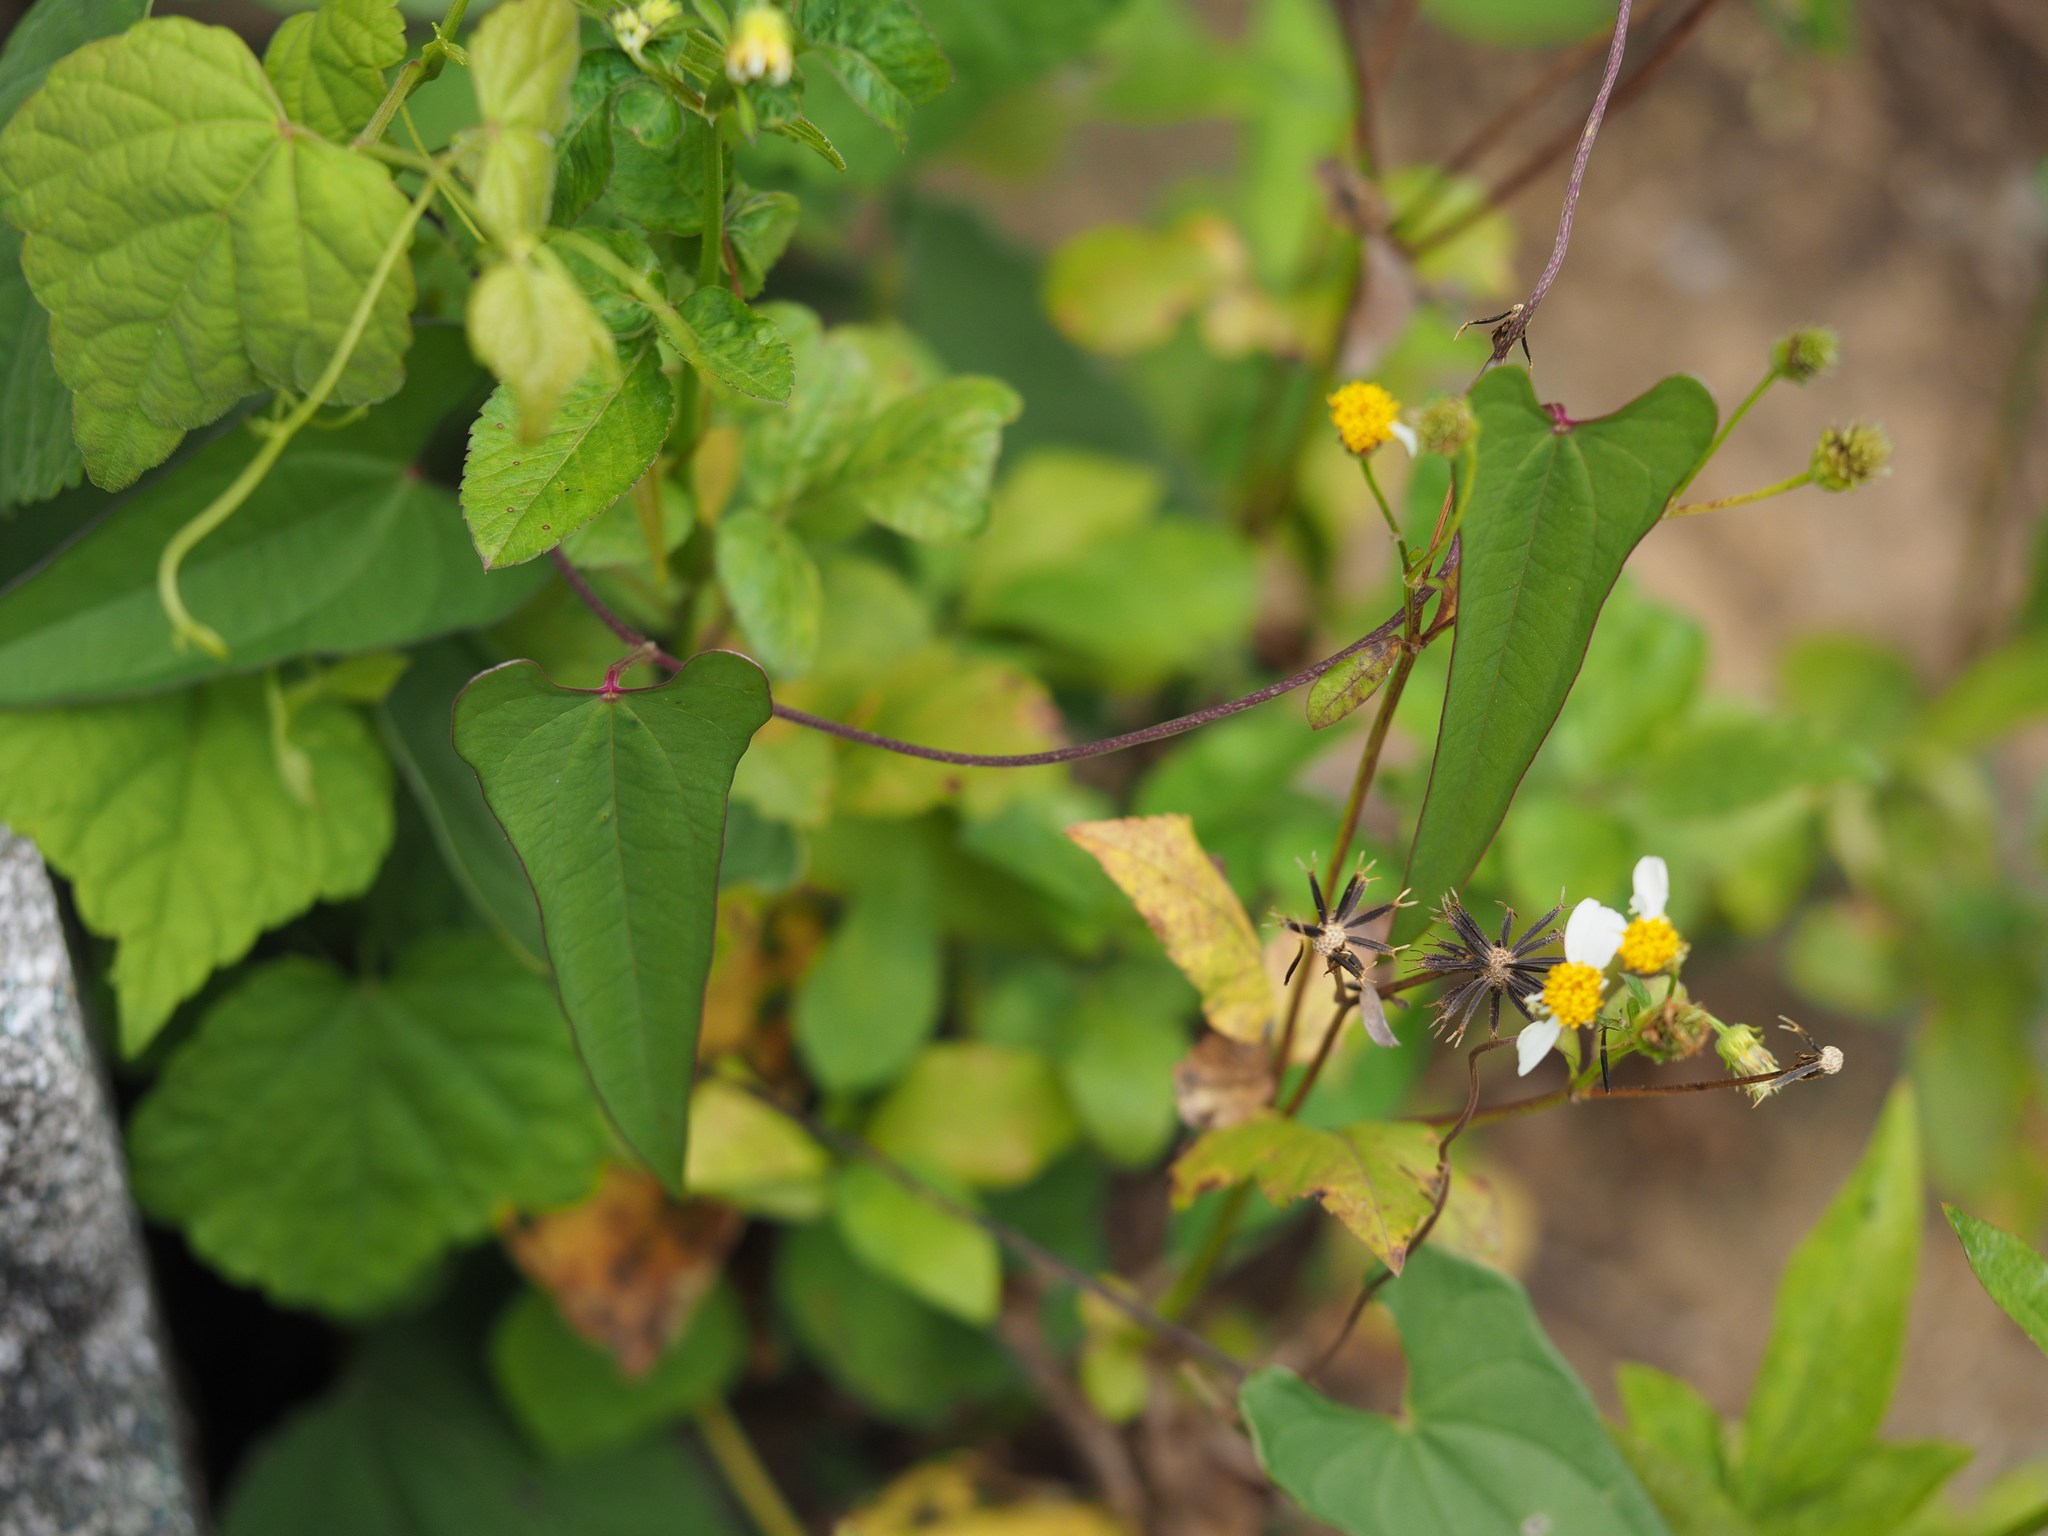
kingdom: Plantae
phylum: Tracheophyta
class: Liliopsida
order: Dioscoreales
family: Dioscoreaceae
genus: Dioscorea
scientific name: Dioscorea japonica
